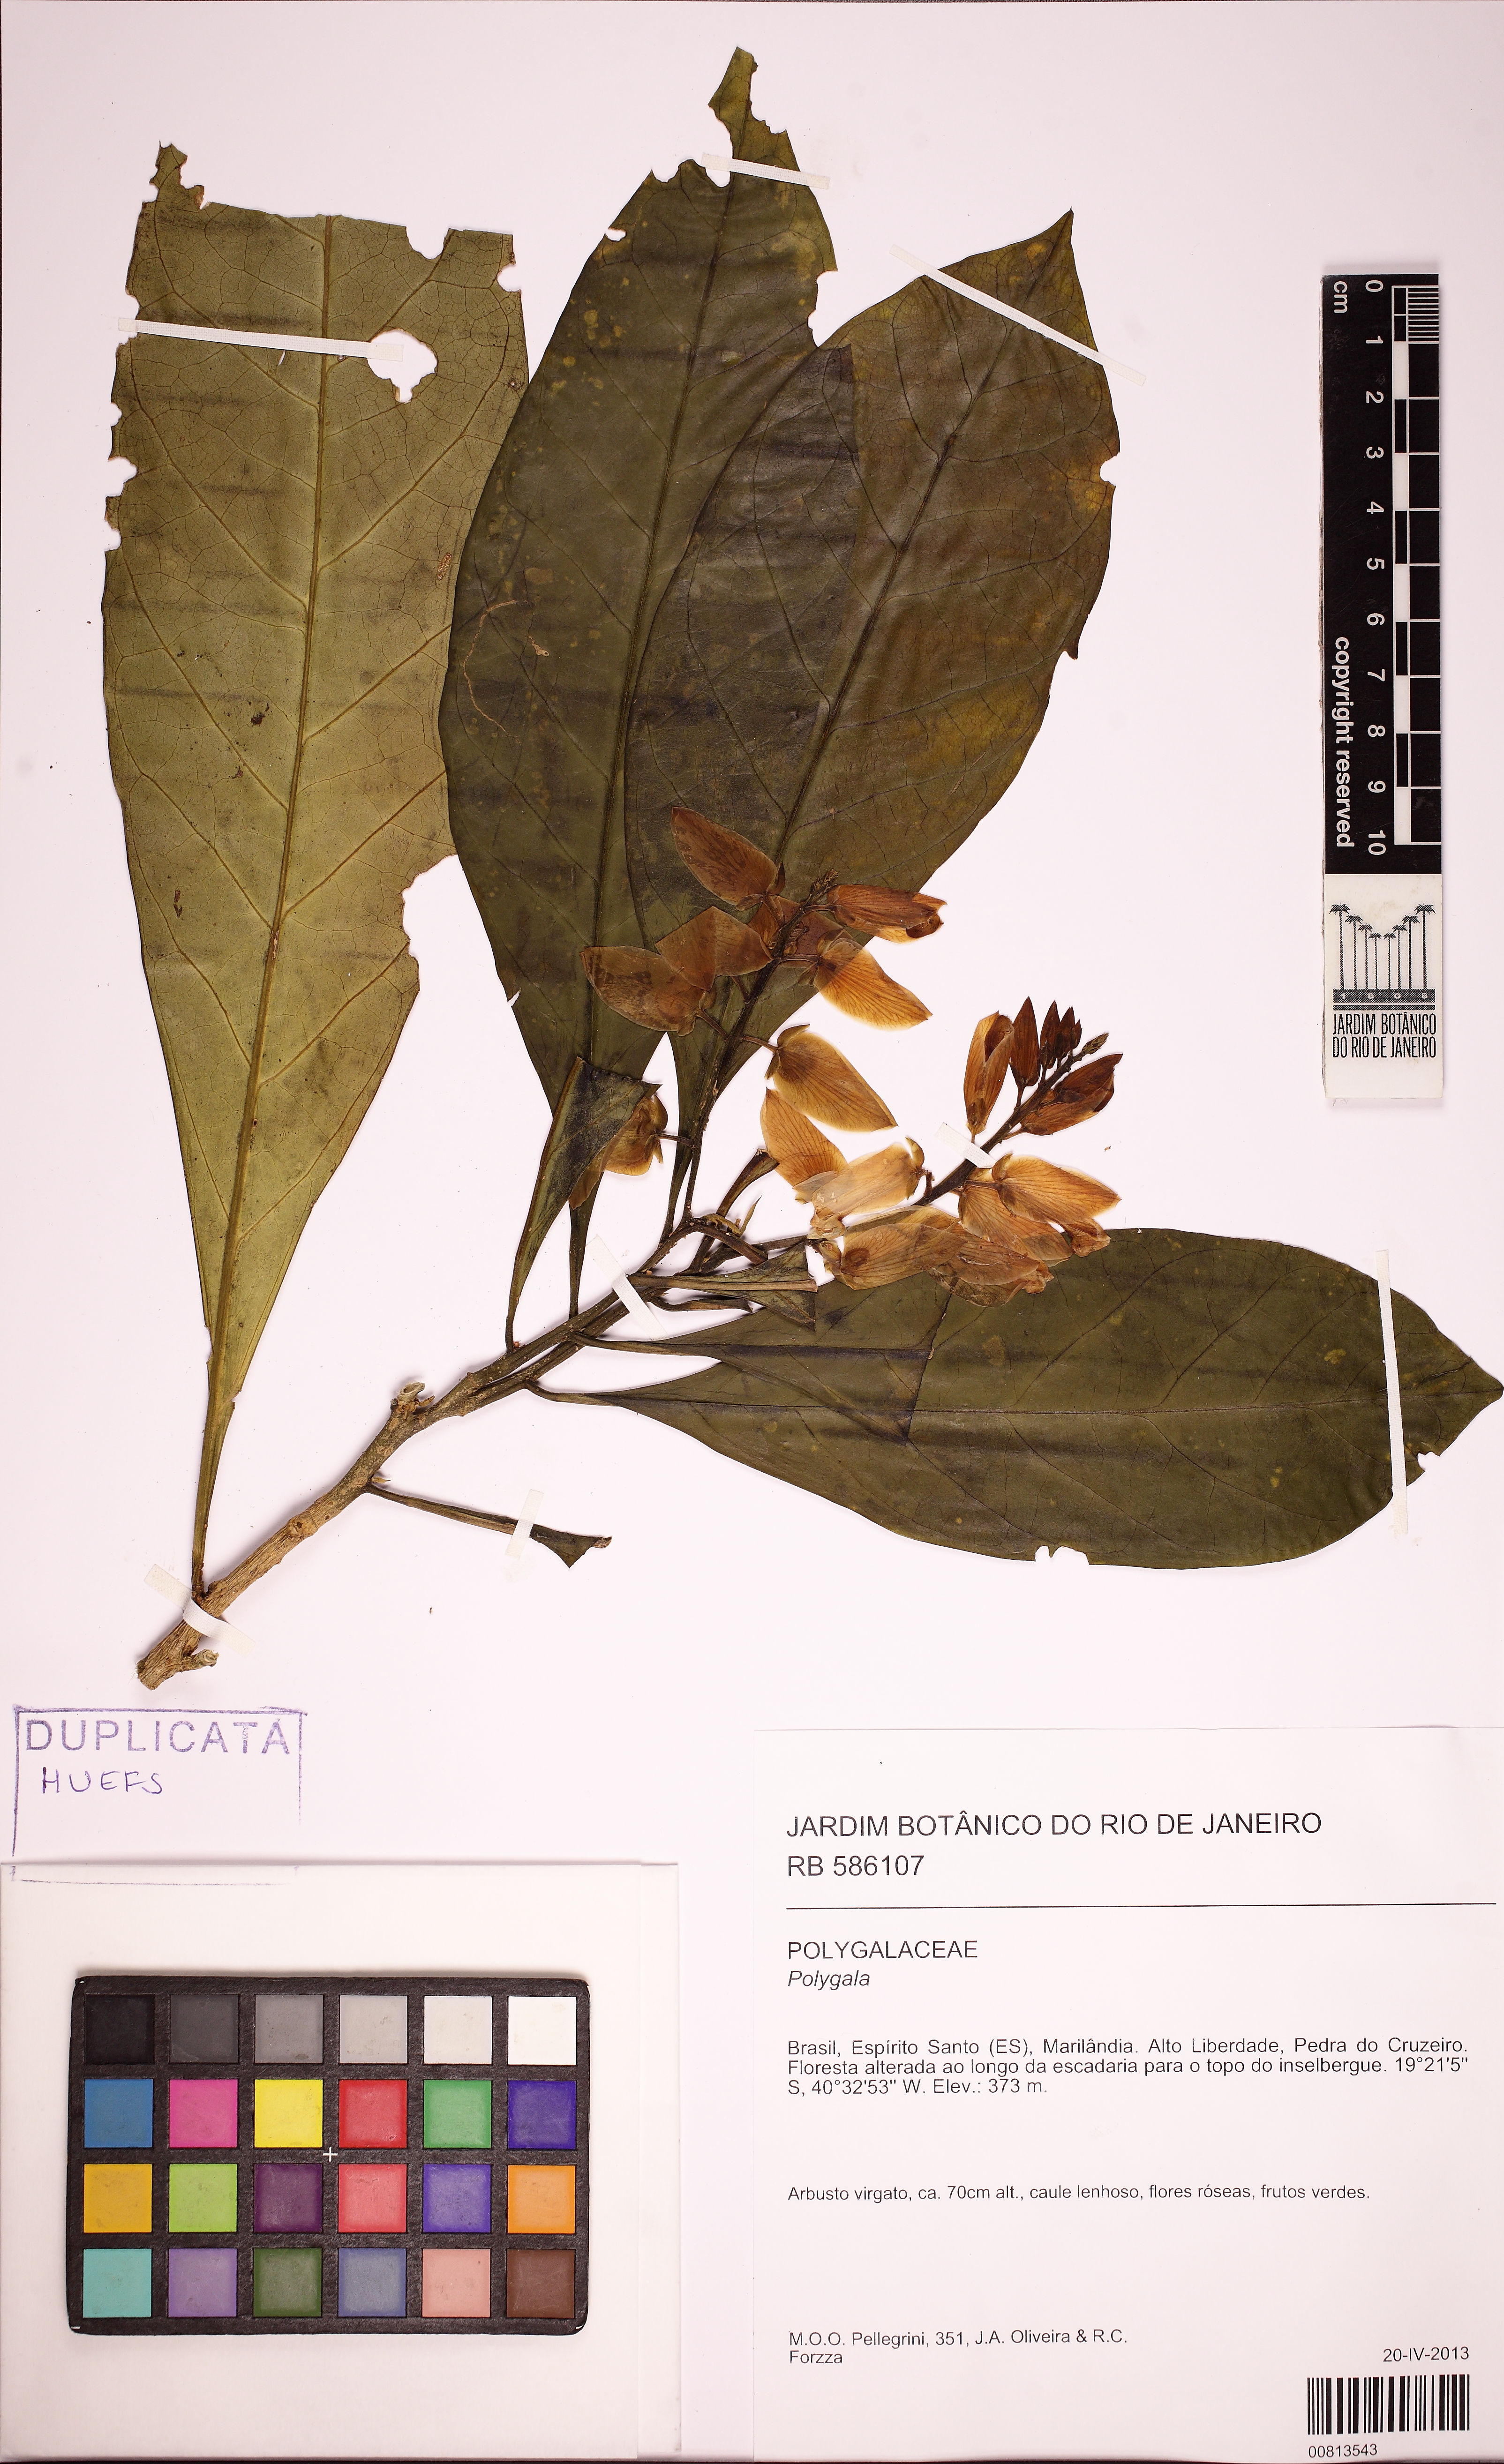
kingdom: Plantae
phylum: Tracheophyta
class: Magnoliopsida
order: Fabales
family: Polygalaceae
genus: Caamembeca
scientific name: Caamembeca
